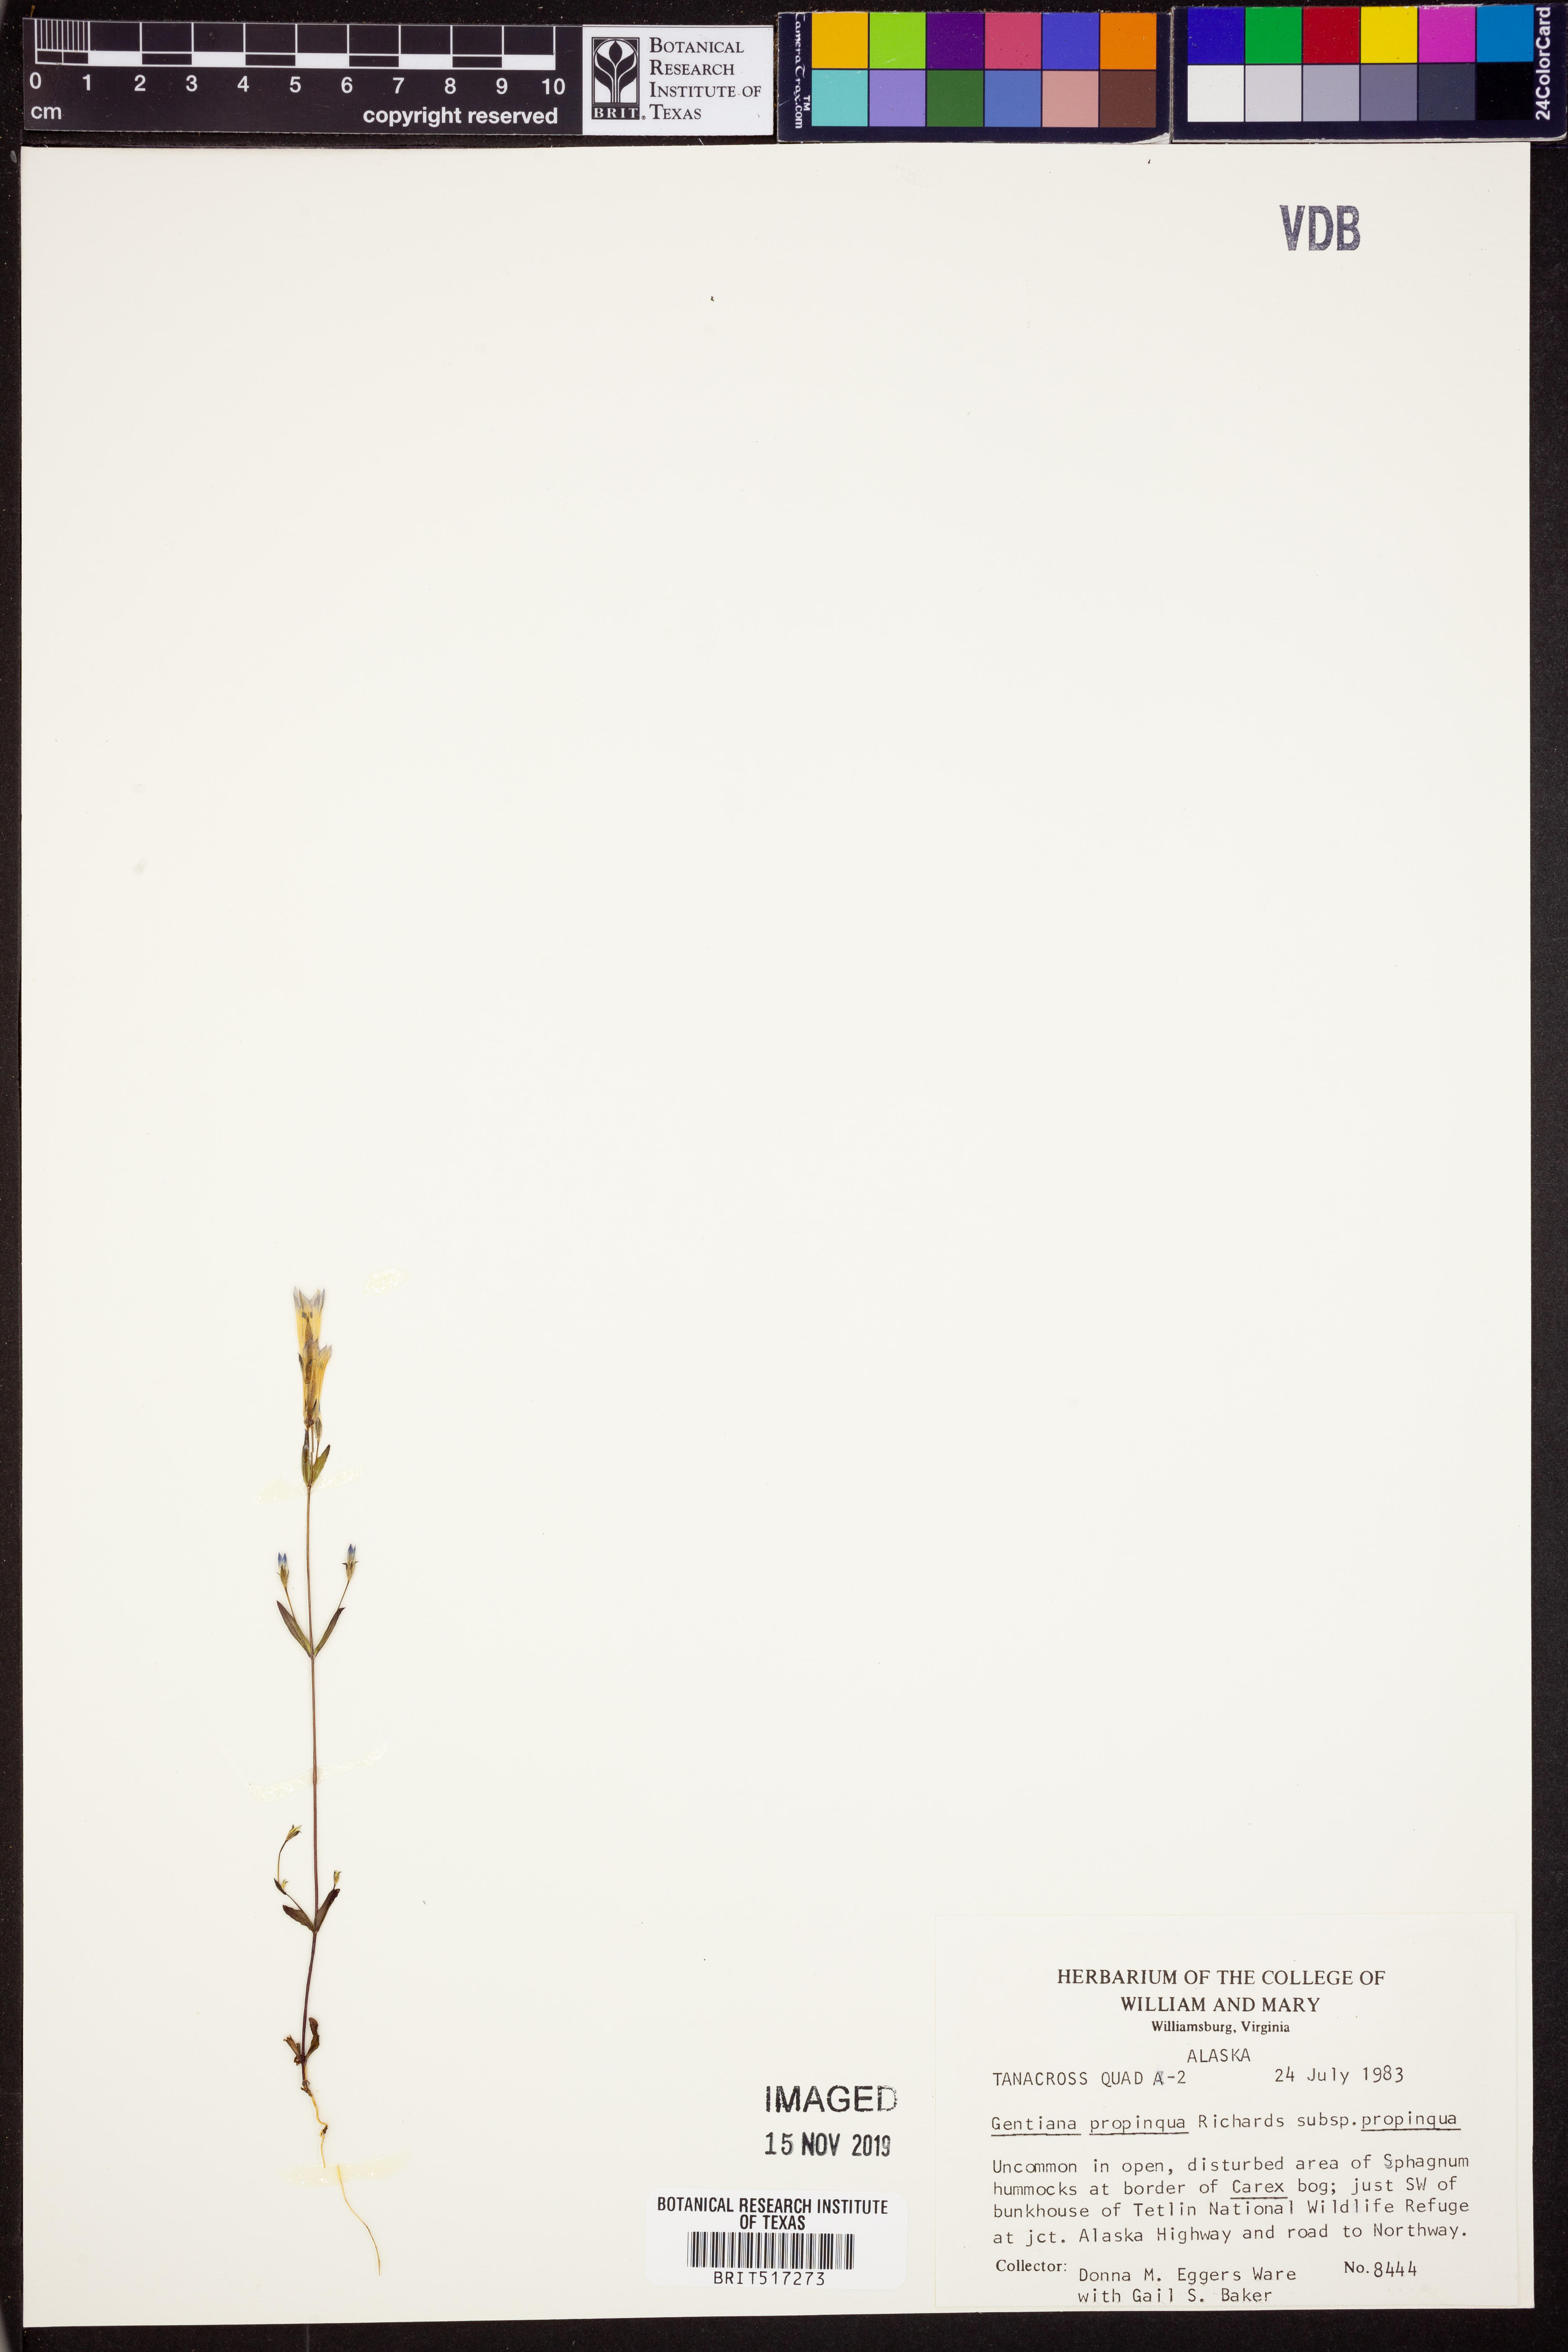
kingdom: Plantae
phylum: Tracheophyta
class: Magnoliopsida
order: Gentianales
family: Gentianaceae
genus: Gentianella
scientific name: Gentianella propinqua
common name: Four-parted dwarf-gentian
